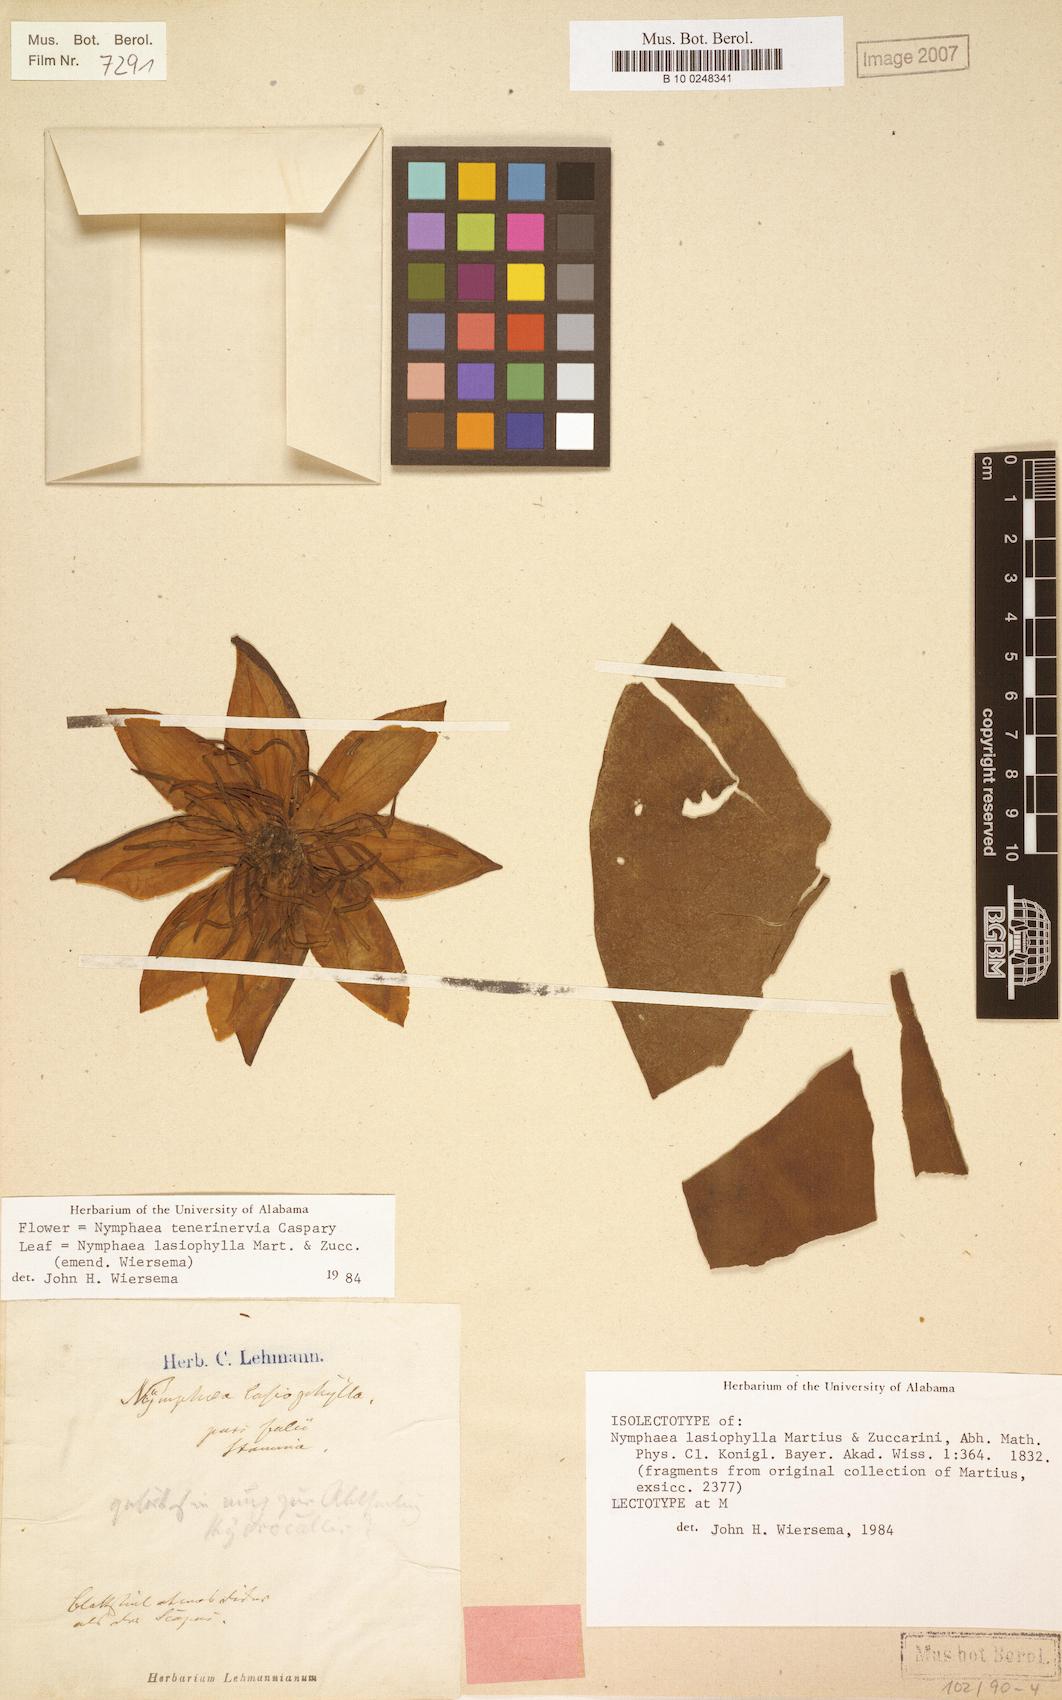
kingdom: Plantae
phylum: Tracheophyta
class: Magnoliopsida
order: Nymphaeales
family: Nymphaeaceae
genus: Nymphaea
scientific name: Nymphaea lasiophylla
